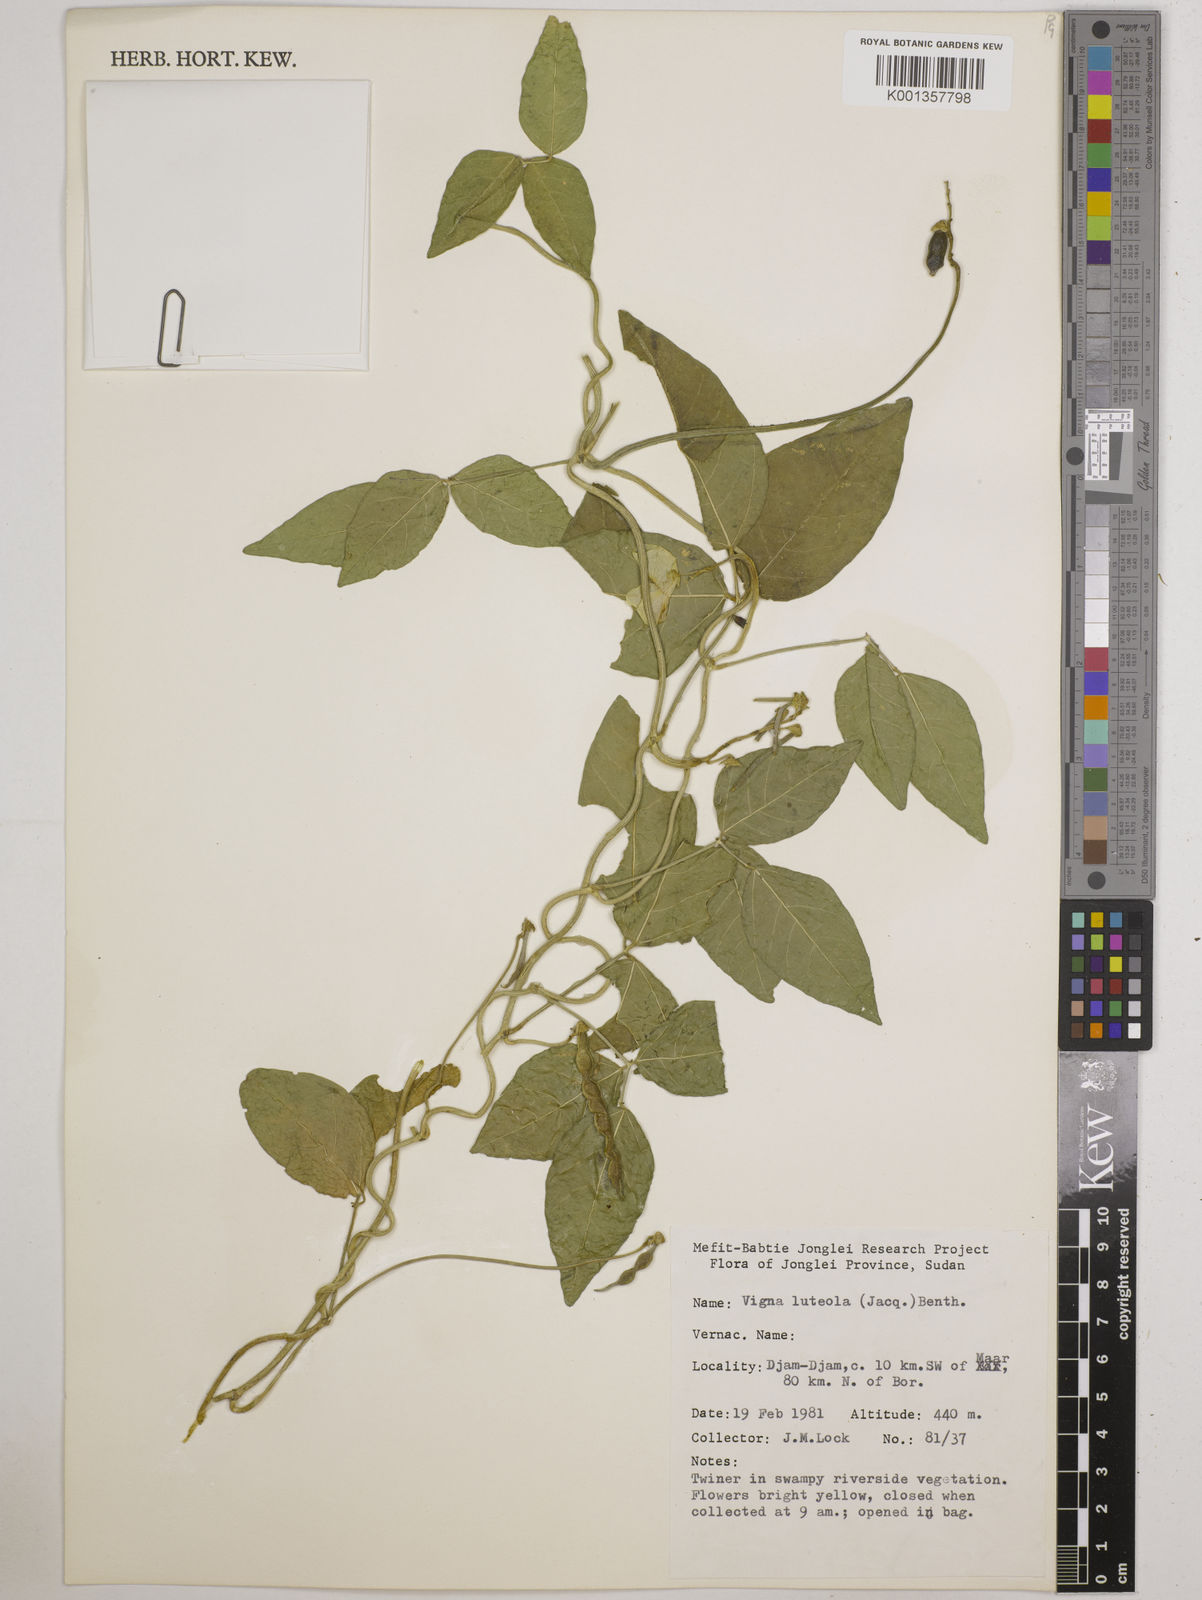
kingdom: Plantae
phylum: Tracheophyta
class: Magnoliopsida
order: Fabales
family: Fabaceae
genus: Vigna
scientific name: Vigna luteola
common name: Hairypod cowpea
